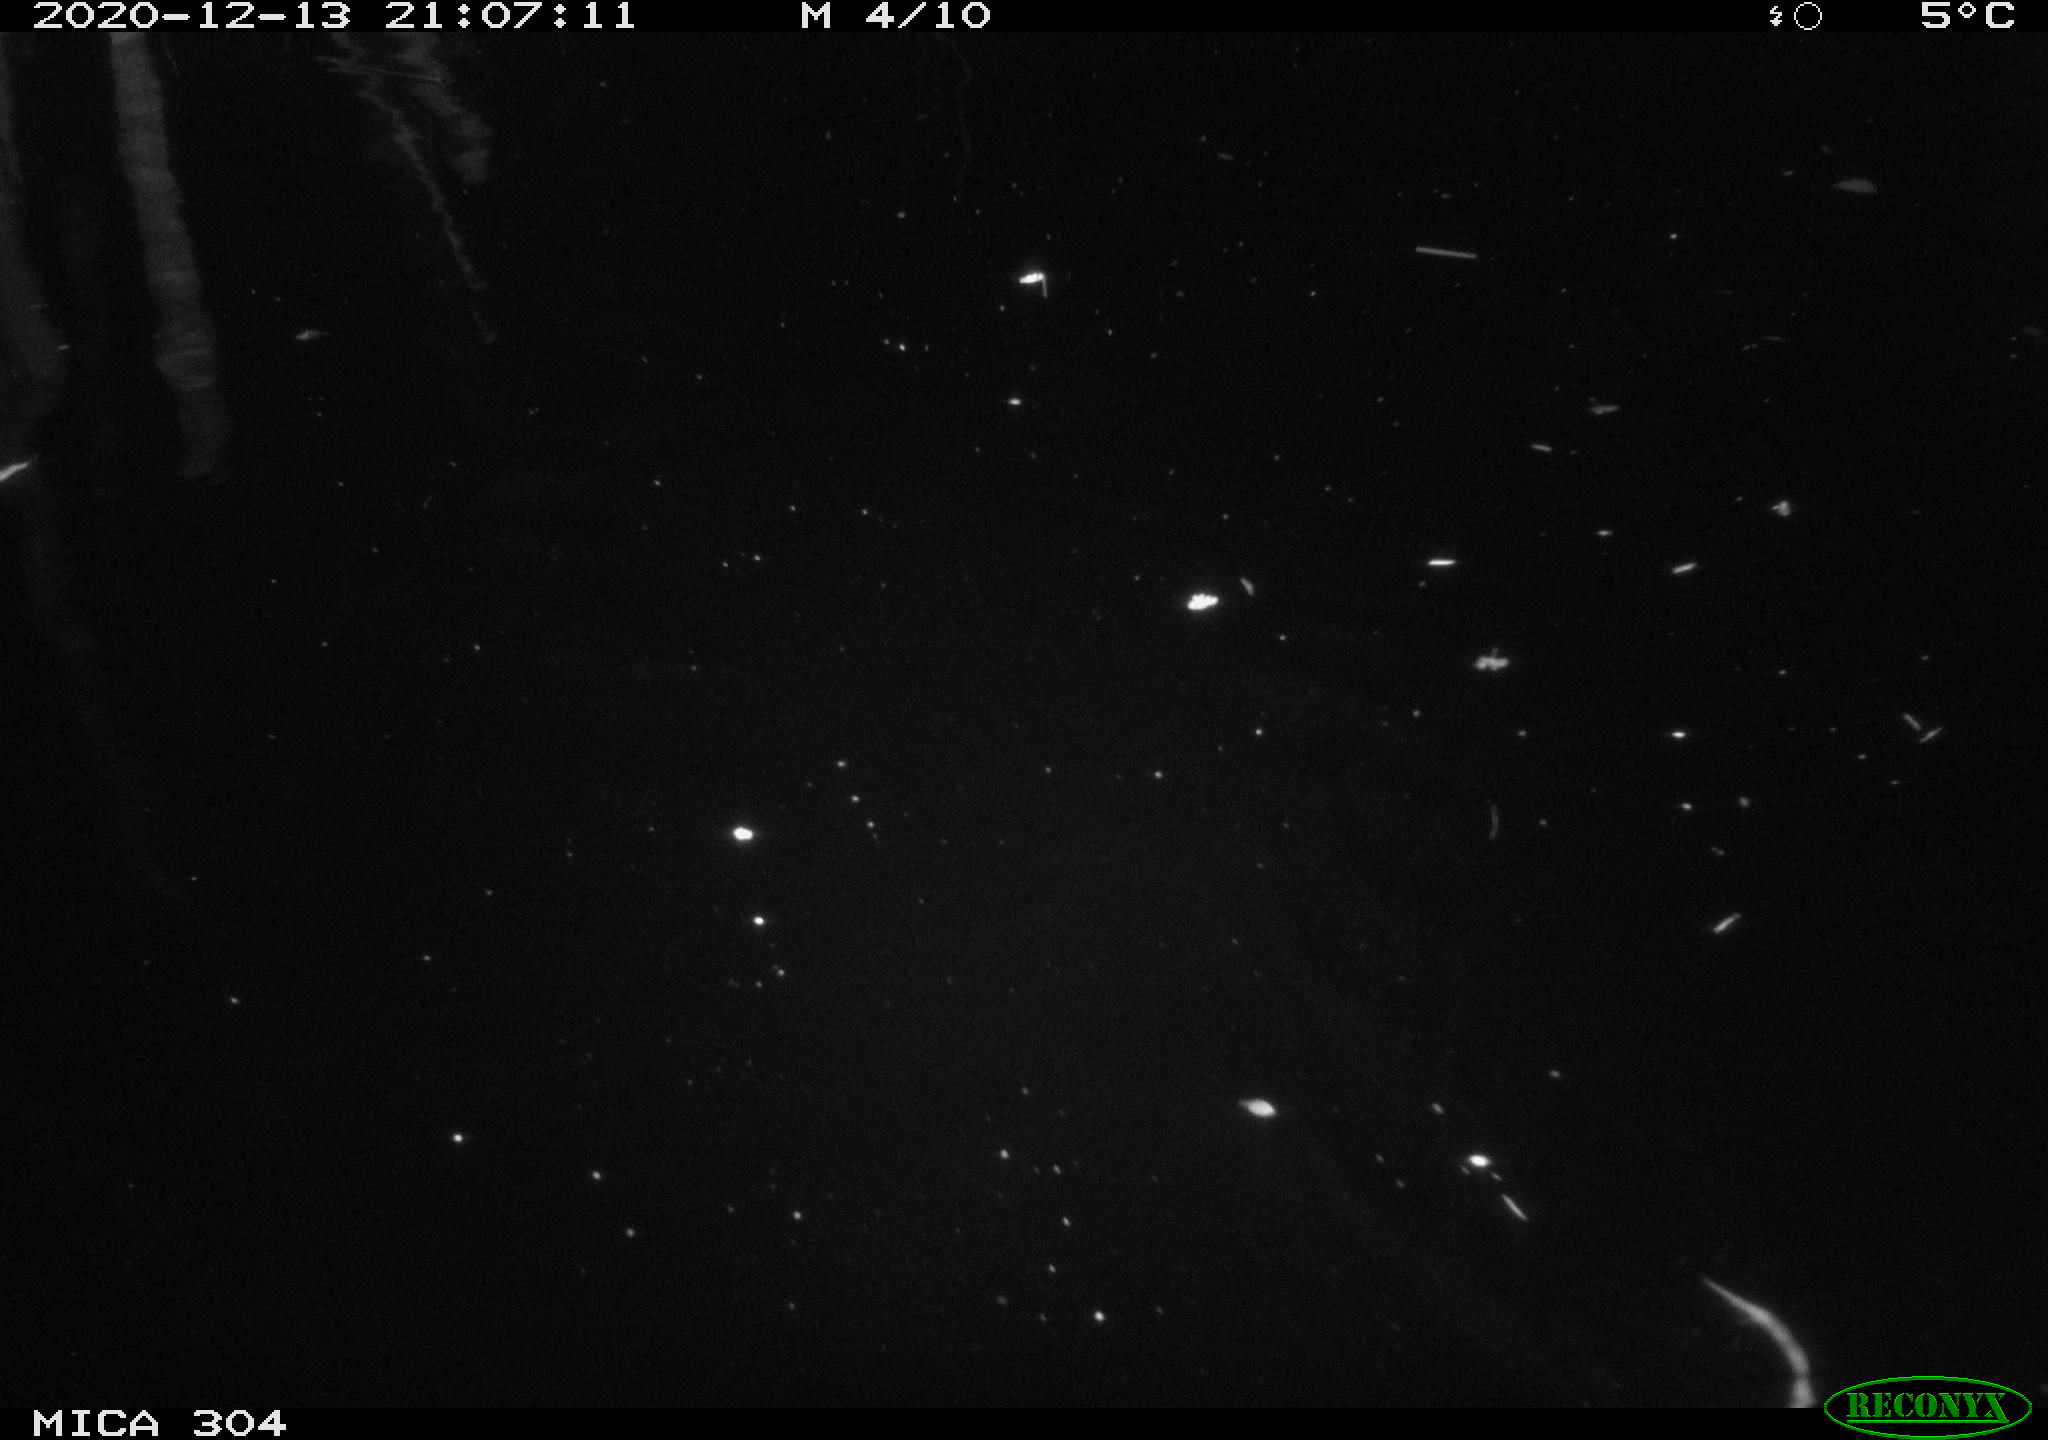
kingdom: Animalia
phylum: Chordata
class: Mammalia
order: Rodentia
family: Muridae
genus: Rattus
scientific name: Rattus norvegicus
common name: Brown rat
